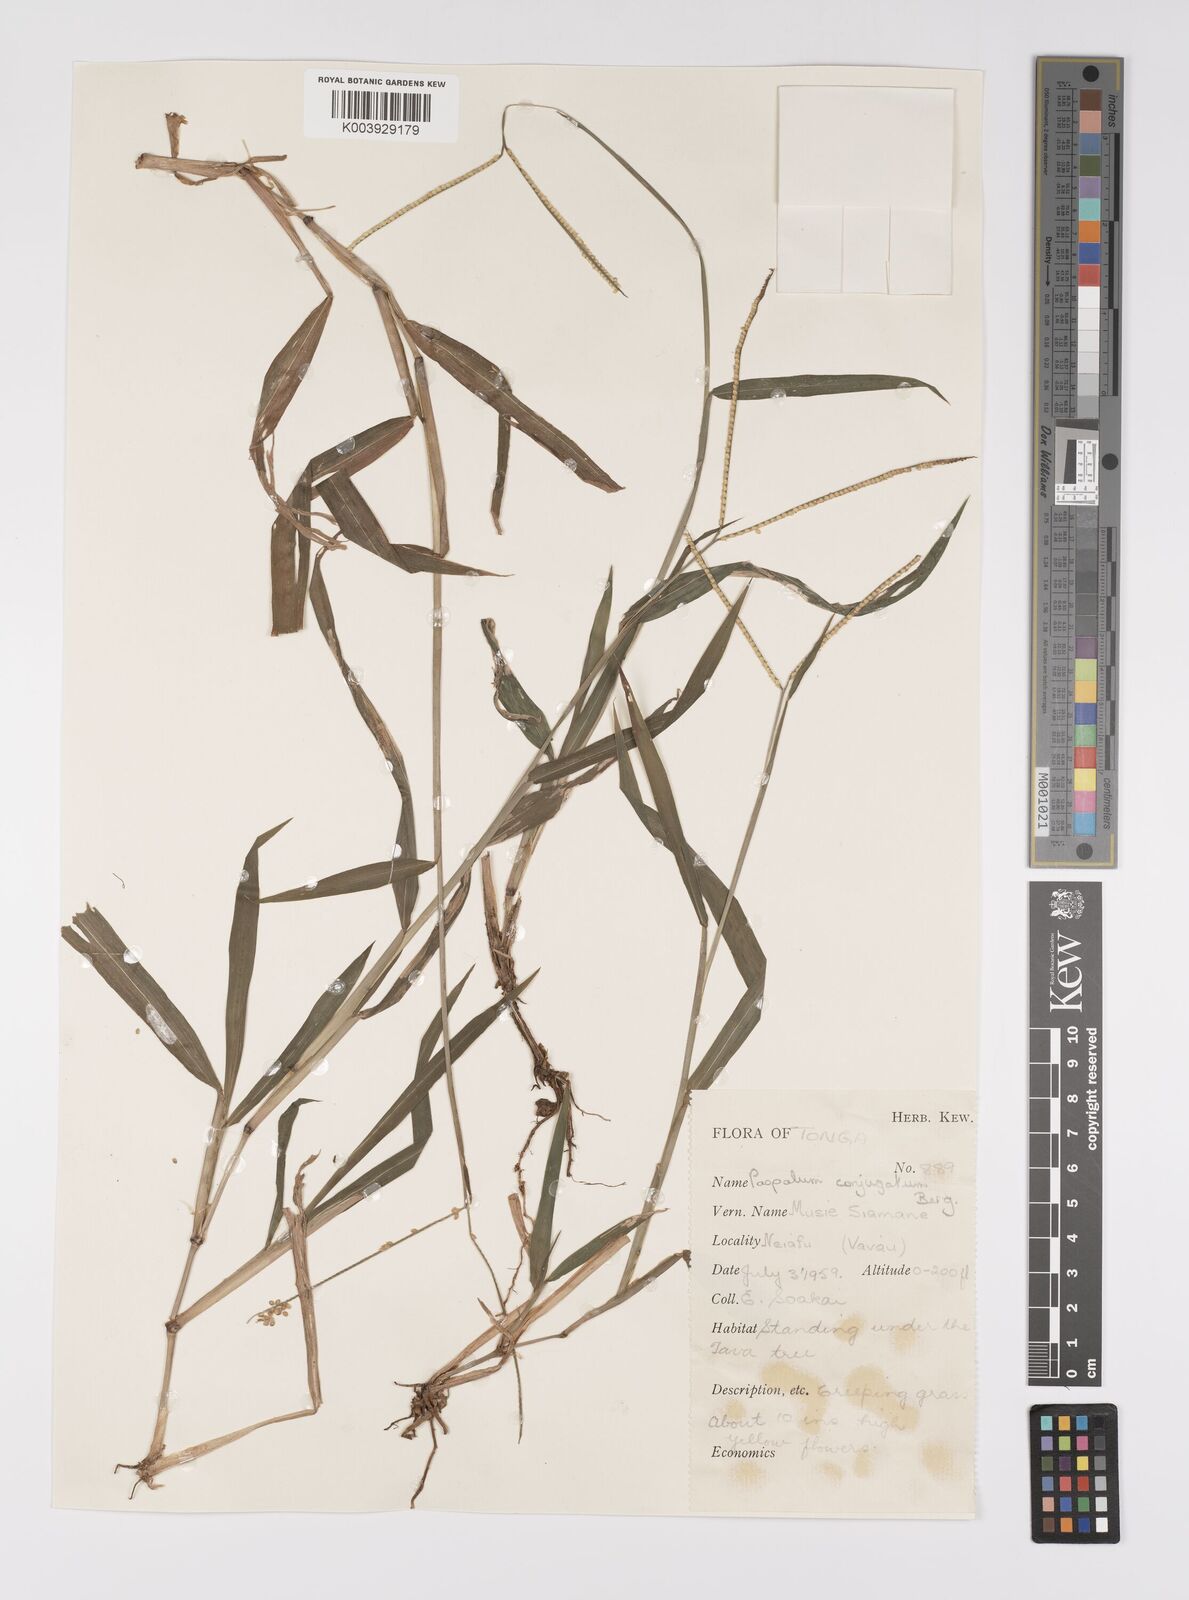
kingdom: Plantae
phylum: Tracheophyta
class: Liliopsida
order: Poales
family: Poaceae
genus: Paspalum
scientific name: Paspalum conjugatum
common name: Hilograss
